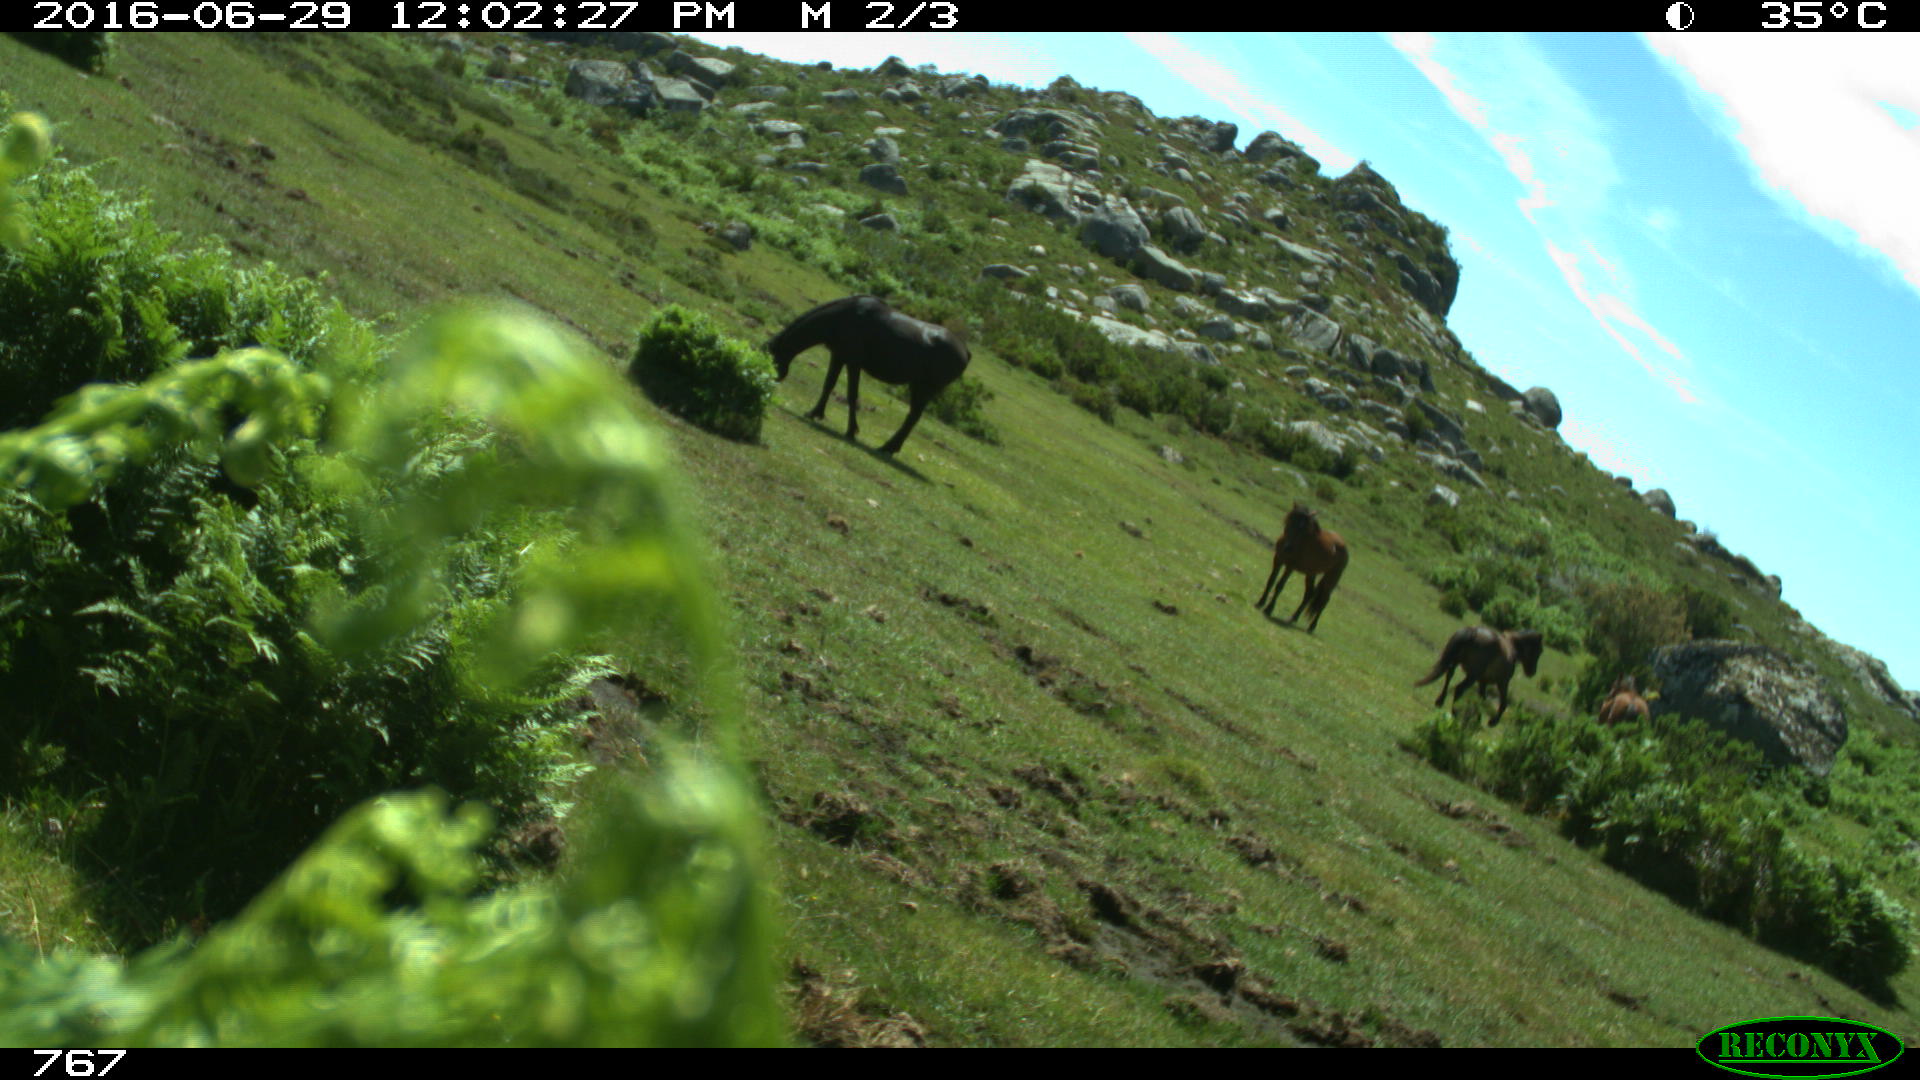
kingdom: Animalia
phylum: Chordata
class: Mammalia
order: Perissodactyla
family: Equidae
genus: Equus
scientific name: Equus caballus
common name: Horse
